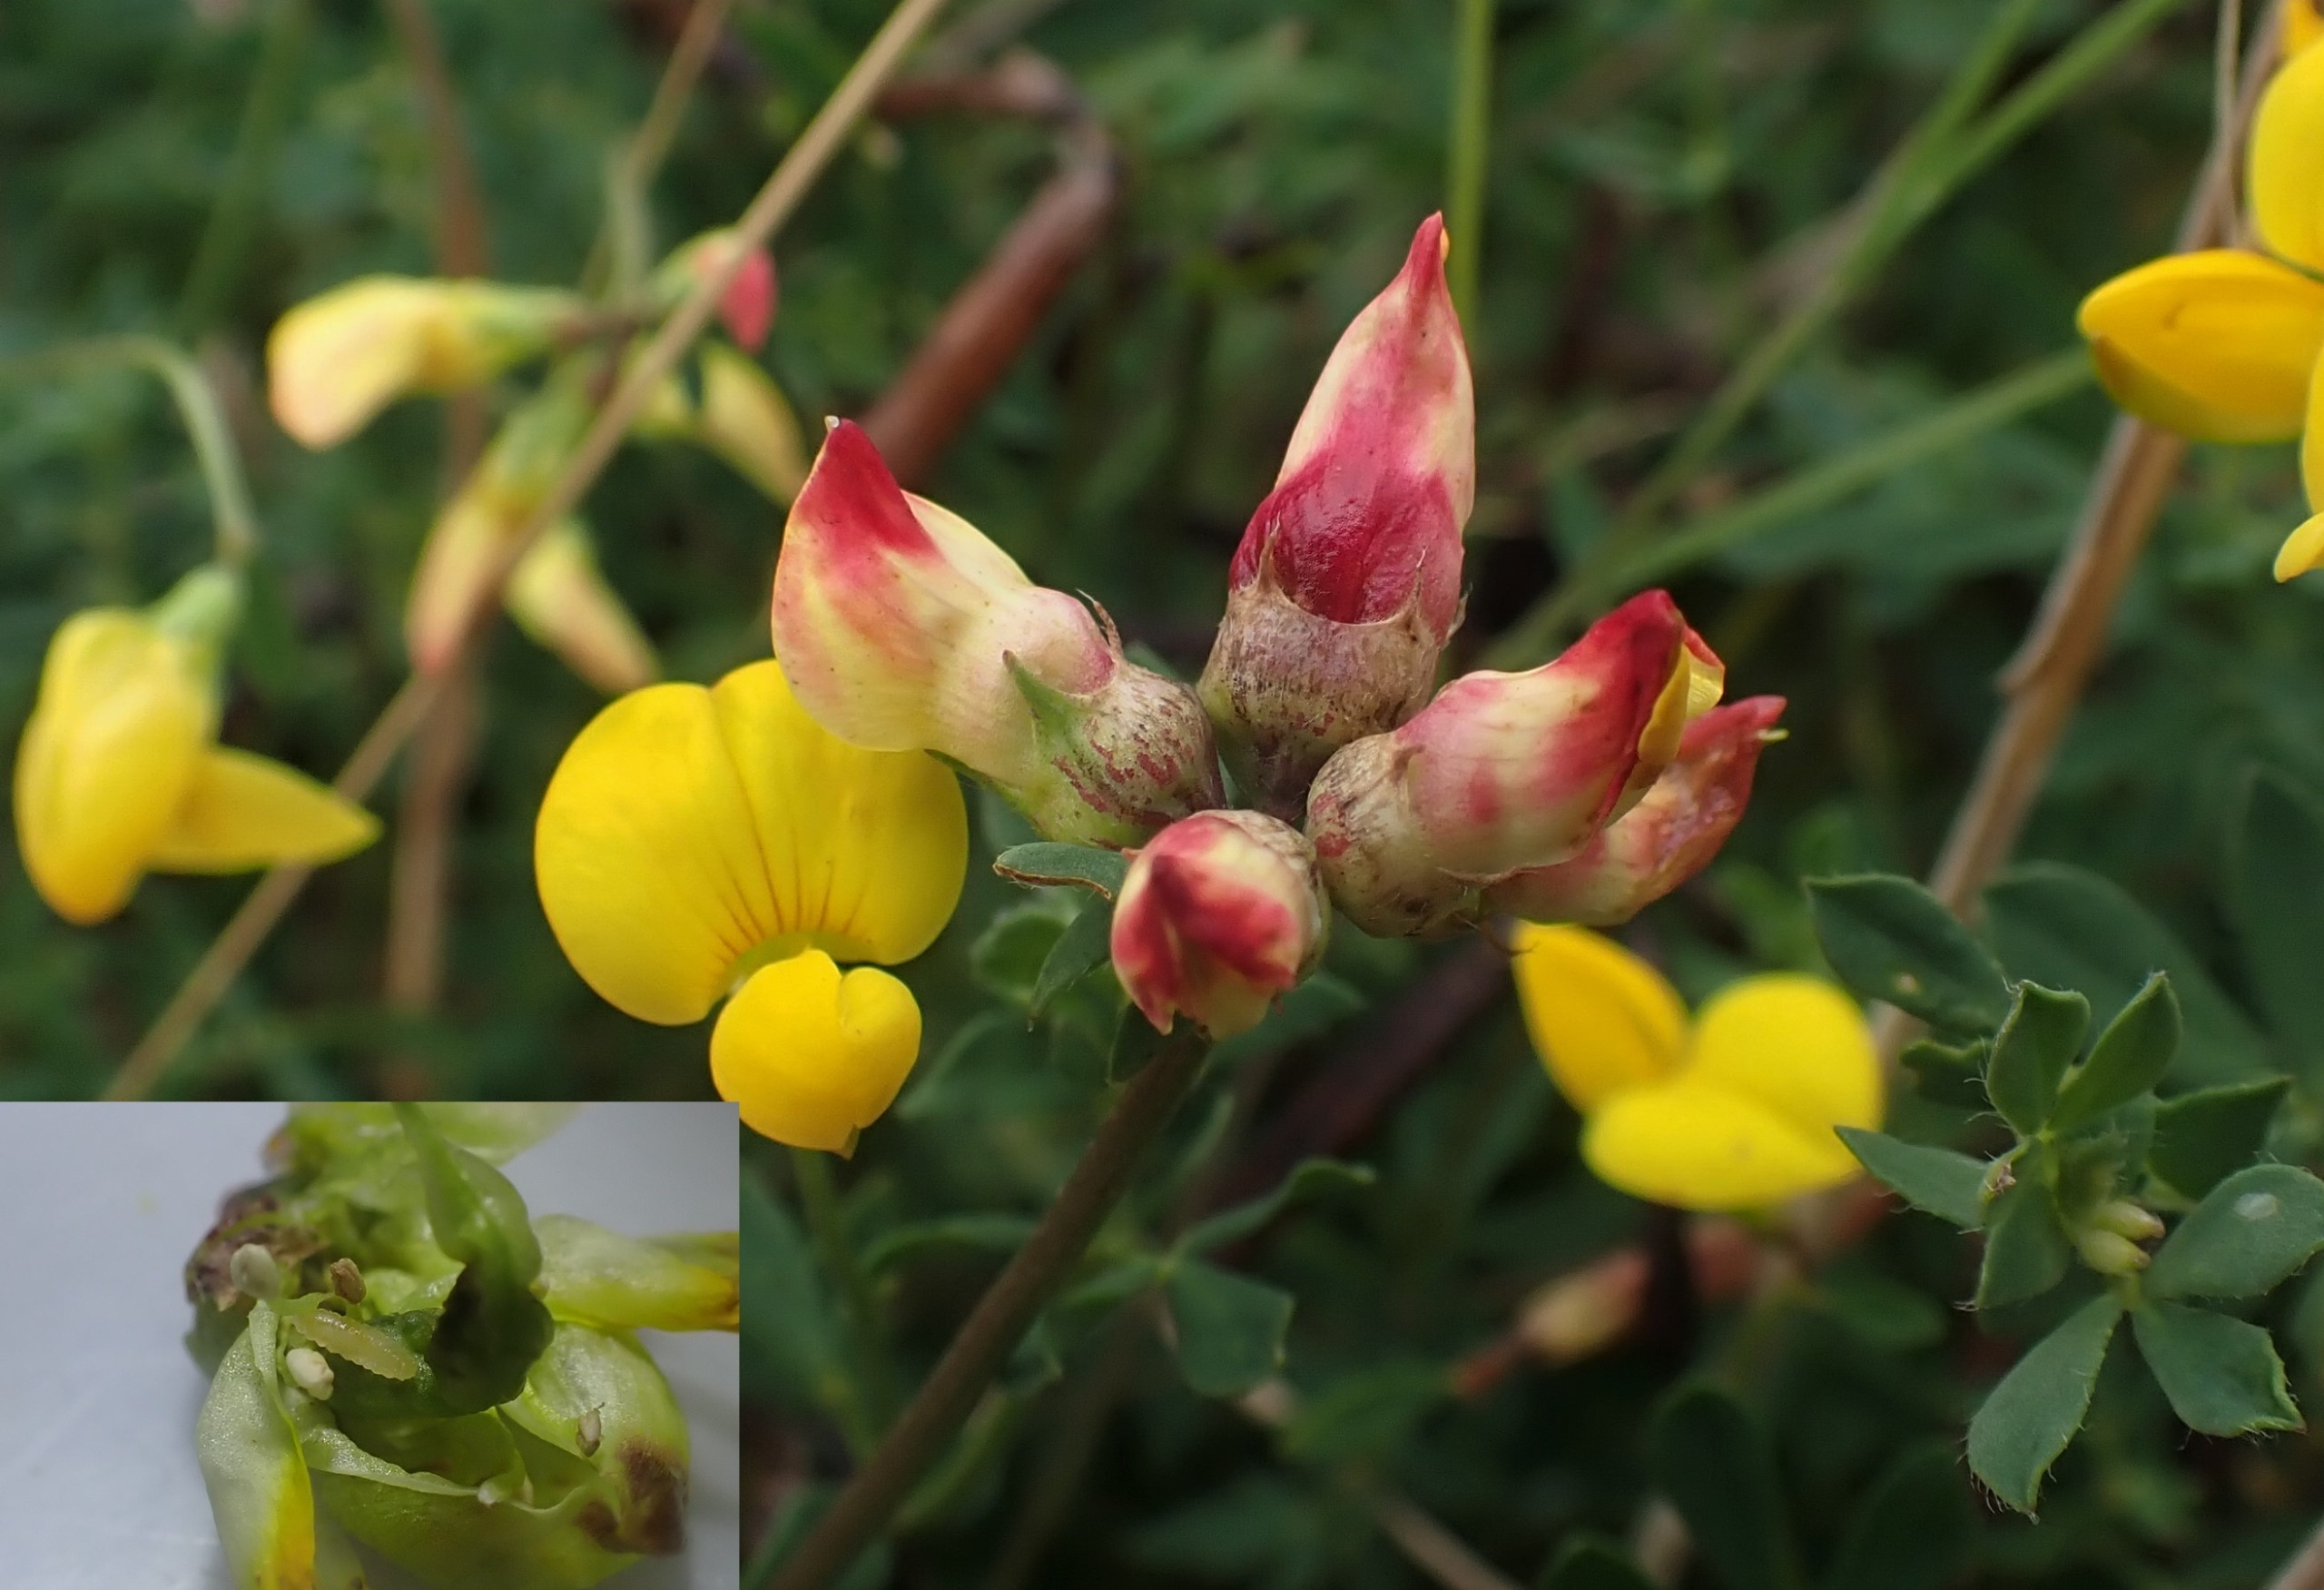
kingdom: Animalia
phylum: Arthropoda
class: Insecta
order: Diptera
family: Cecidomyiidae
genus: Contarinia
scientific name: Contarinia loti
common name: Kællingetandblomstgalmyg
